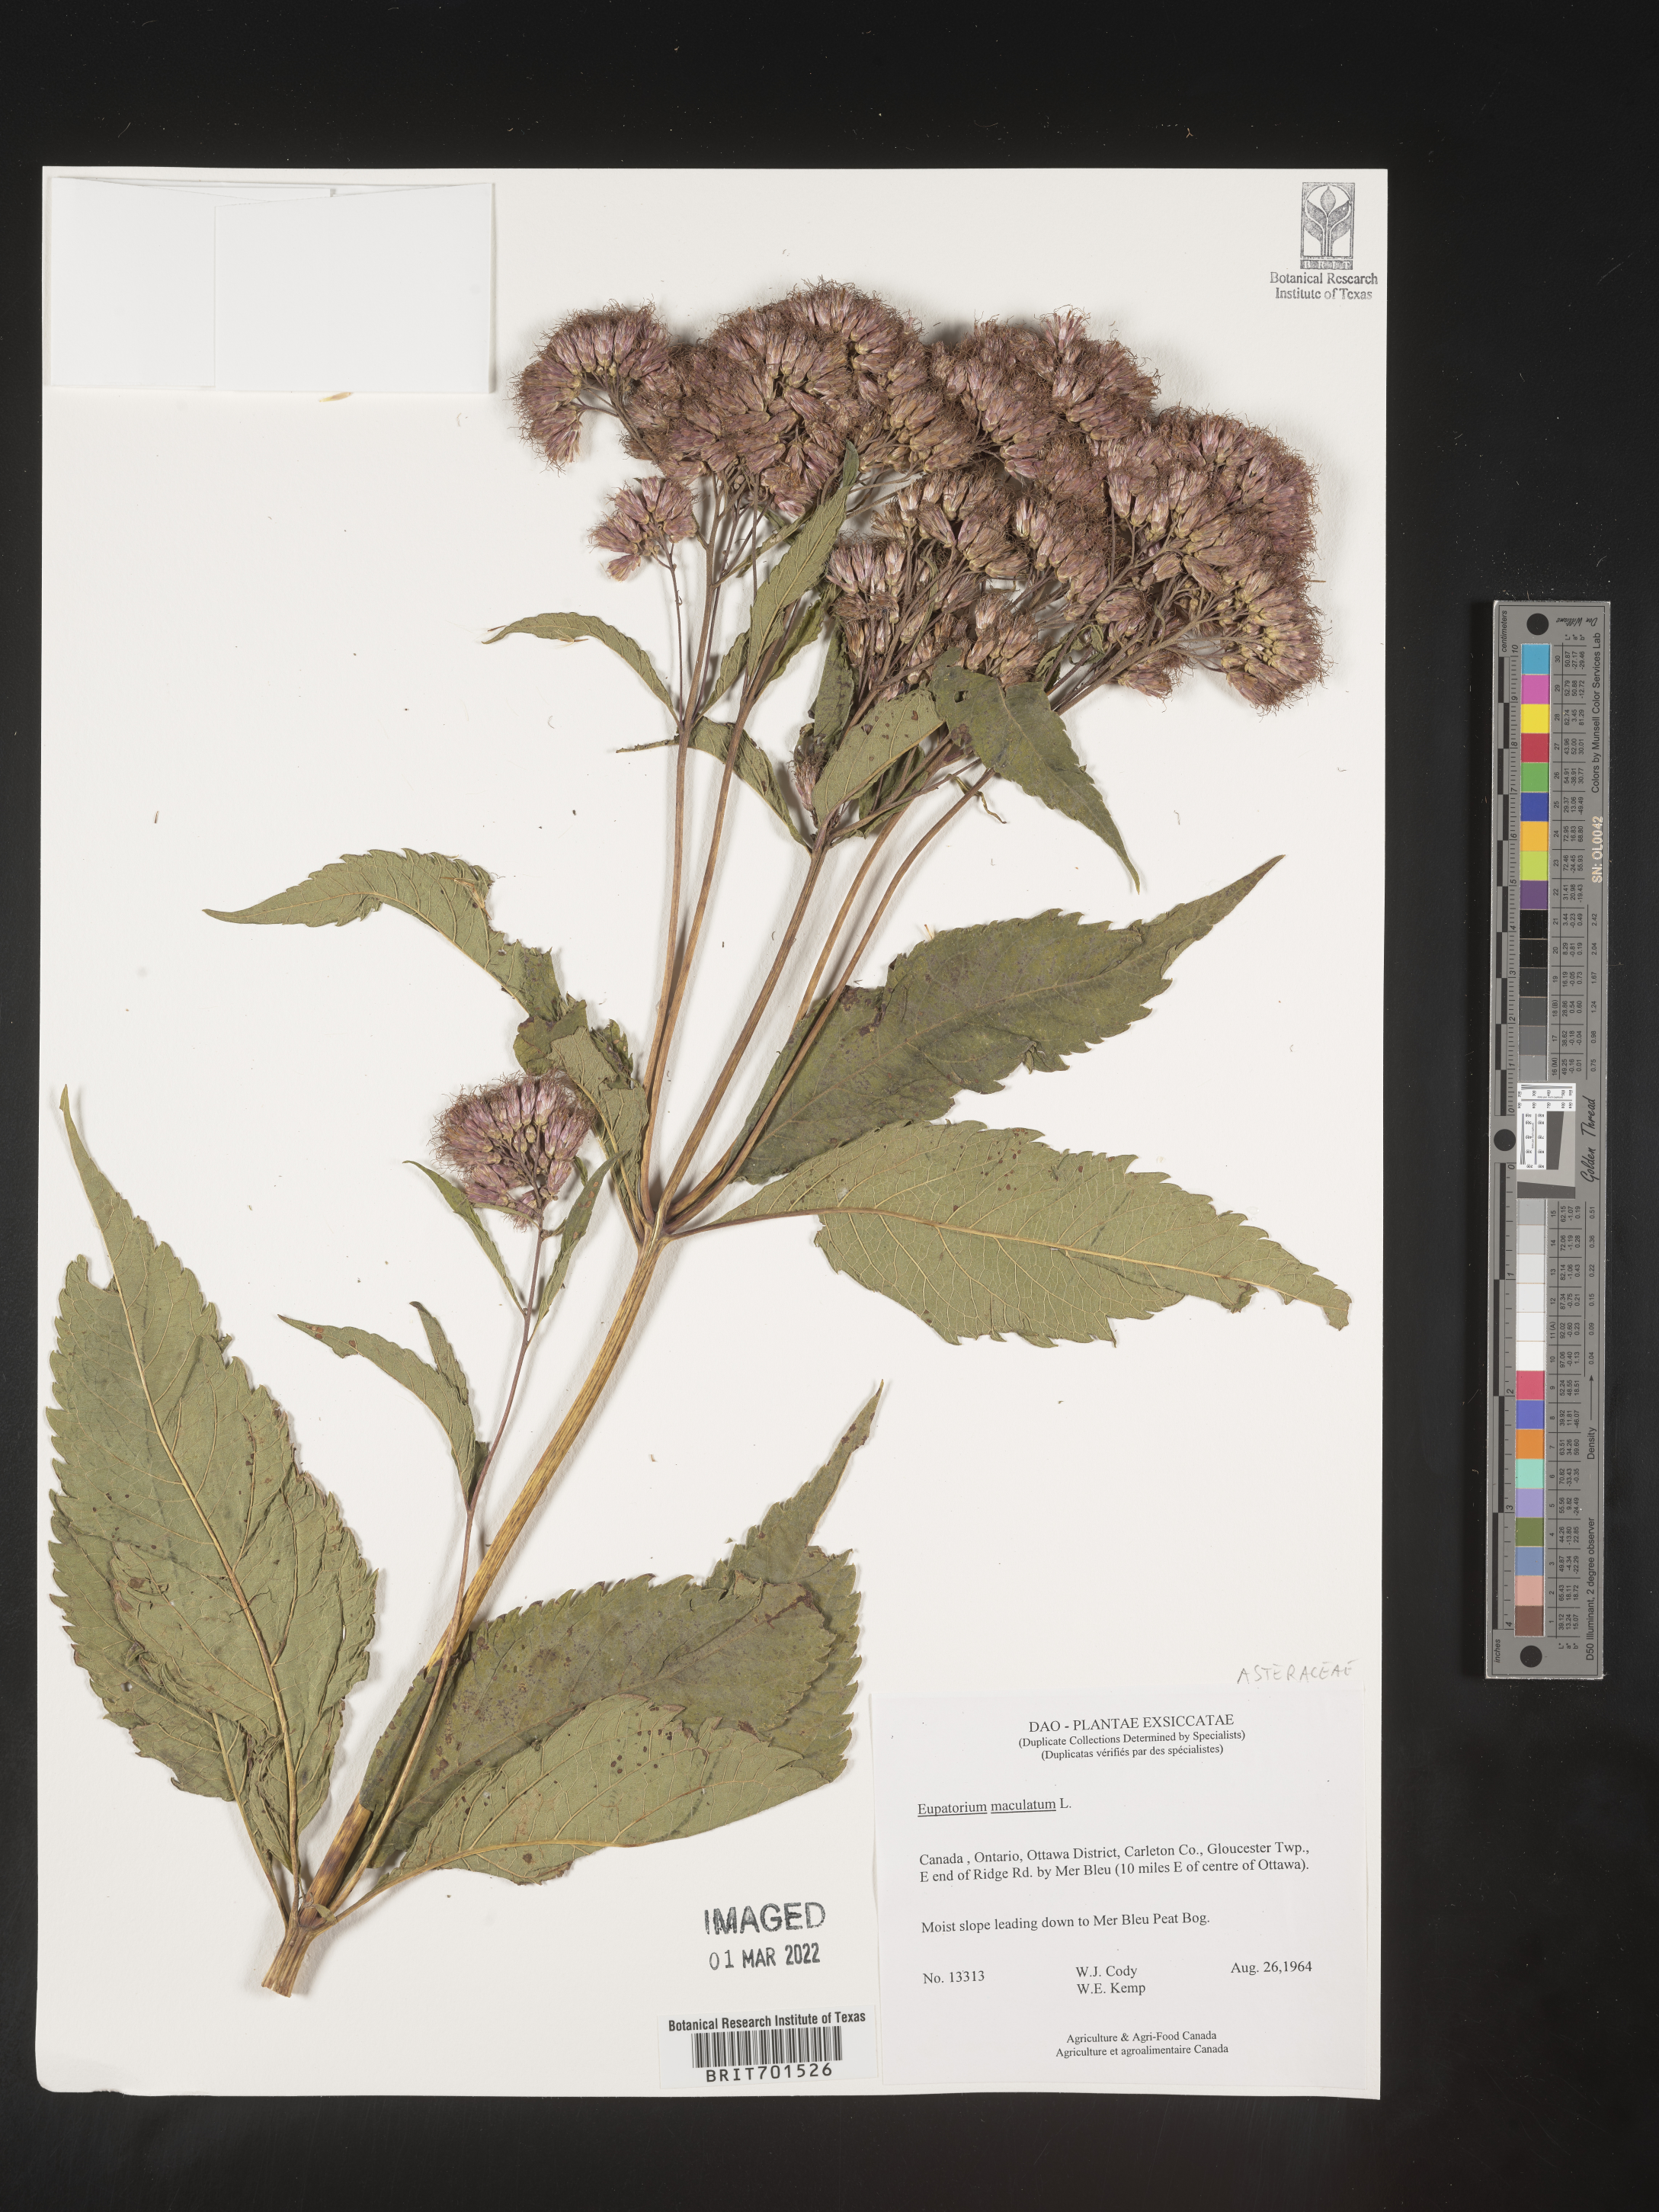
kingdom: Plantae
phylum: Tracheophyta
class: Magnoliopsida
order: Asterales
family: Asteraceae
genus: Eutrochium
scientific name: Eutrochium maculatum
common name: Spotted joe pye weed
